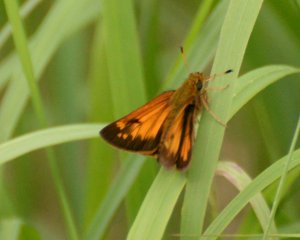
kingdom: Animalia
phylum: Arthropoda
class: Insecta
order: Lepidoptera
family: Hesperiidae
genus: Lon
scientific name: Lon hobomok
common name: Hobomok Skipper
